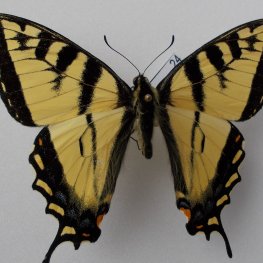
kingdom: Animalia
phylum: Arthropoda
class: Insecta
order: Lepidoptera
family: Papilionidae
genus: Pterourus
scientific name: Pterourus canadensis
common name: Canadian Tiger Swallowtail
